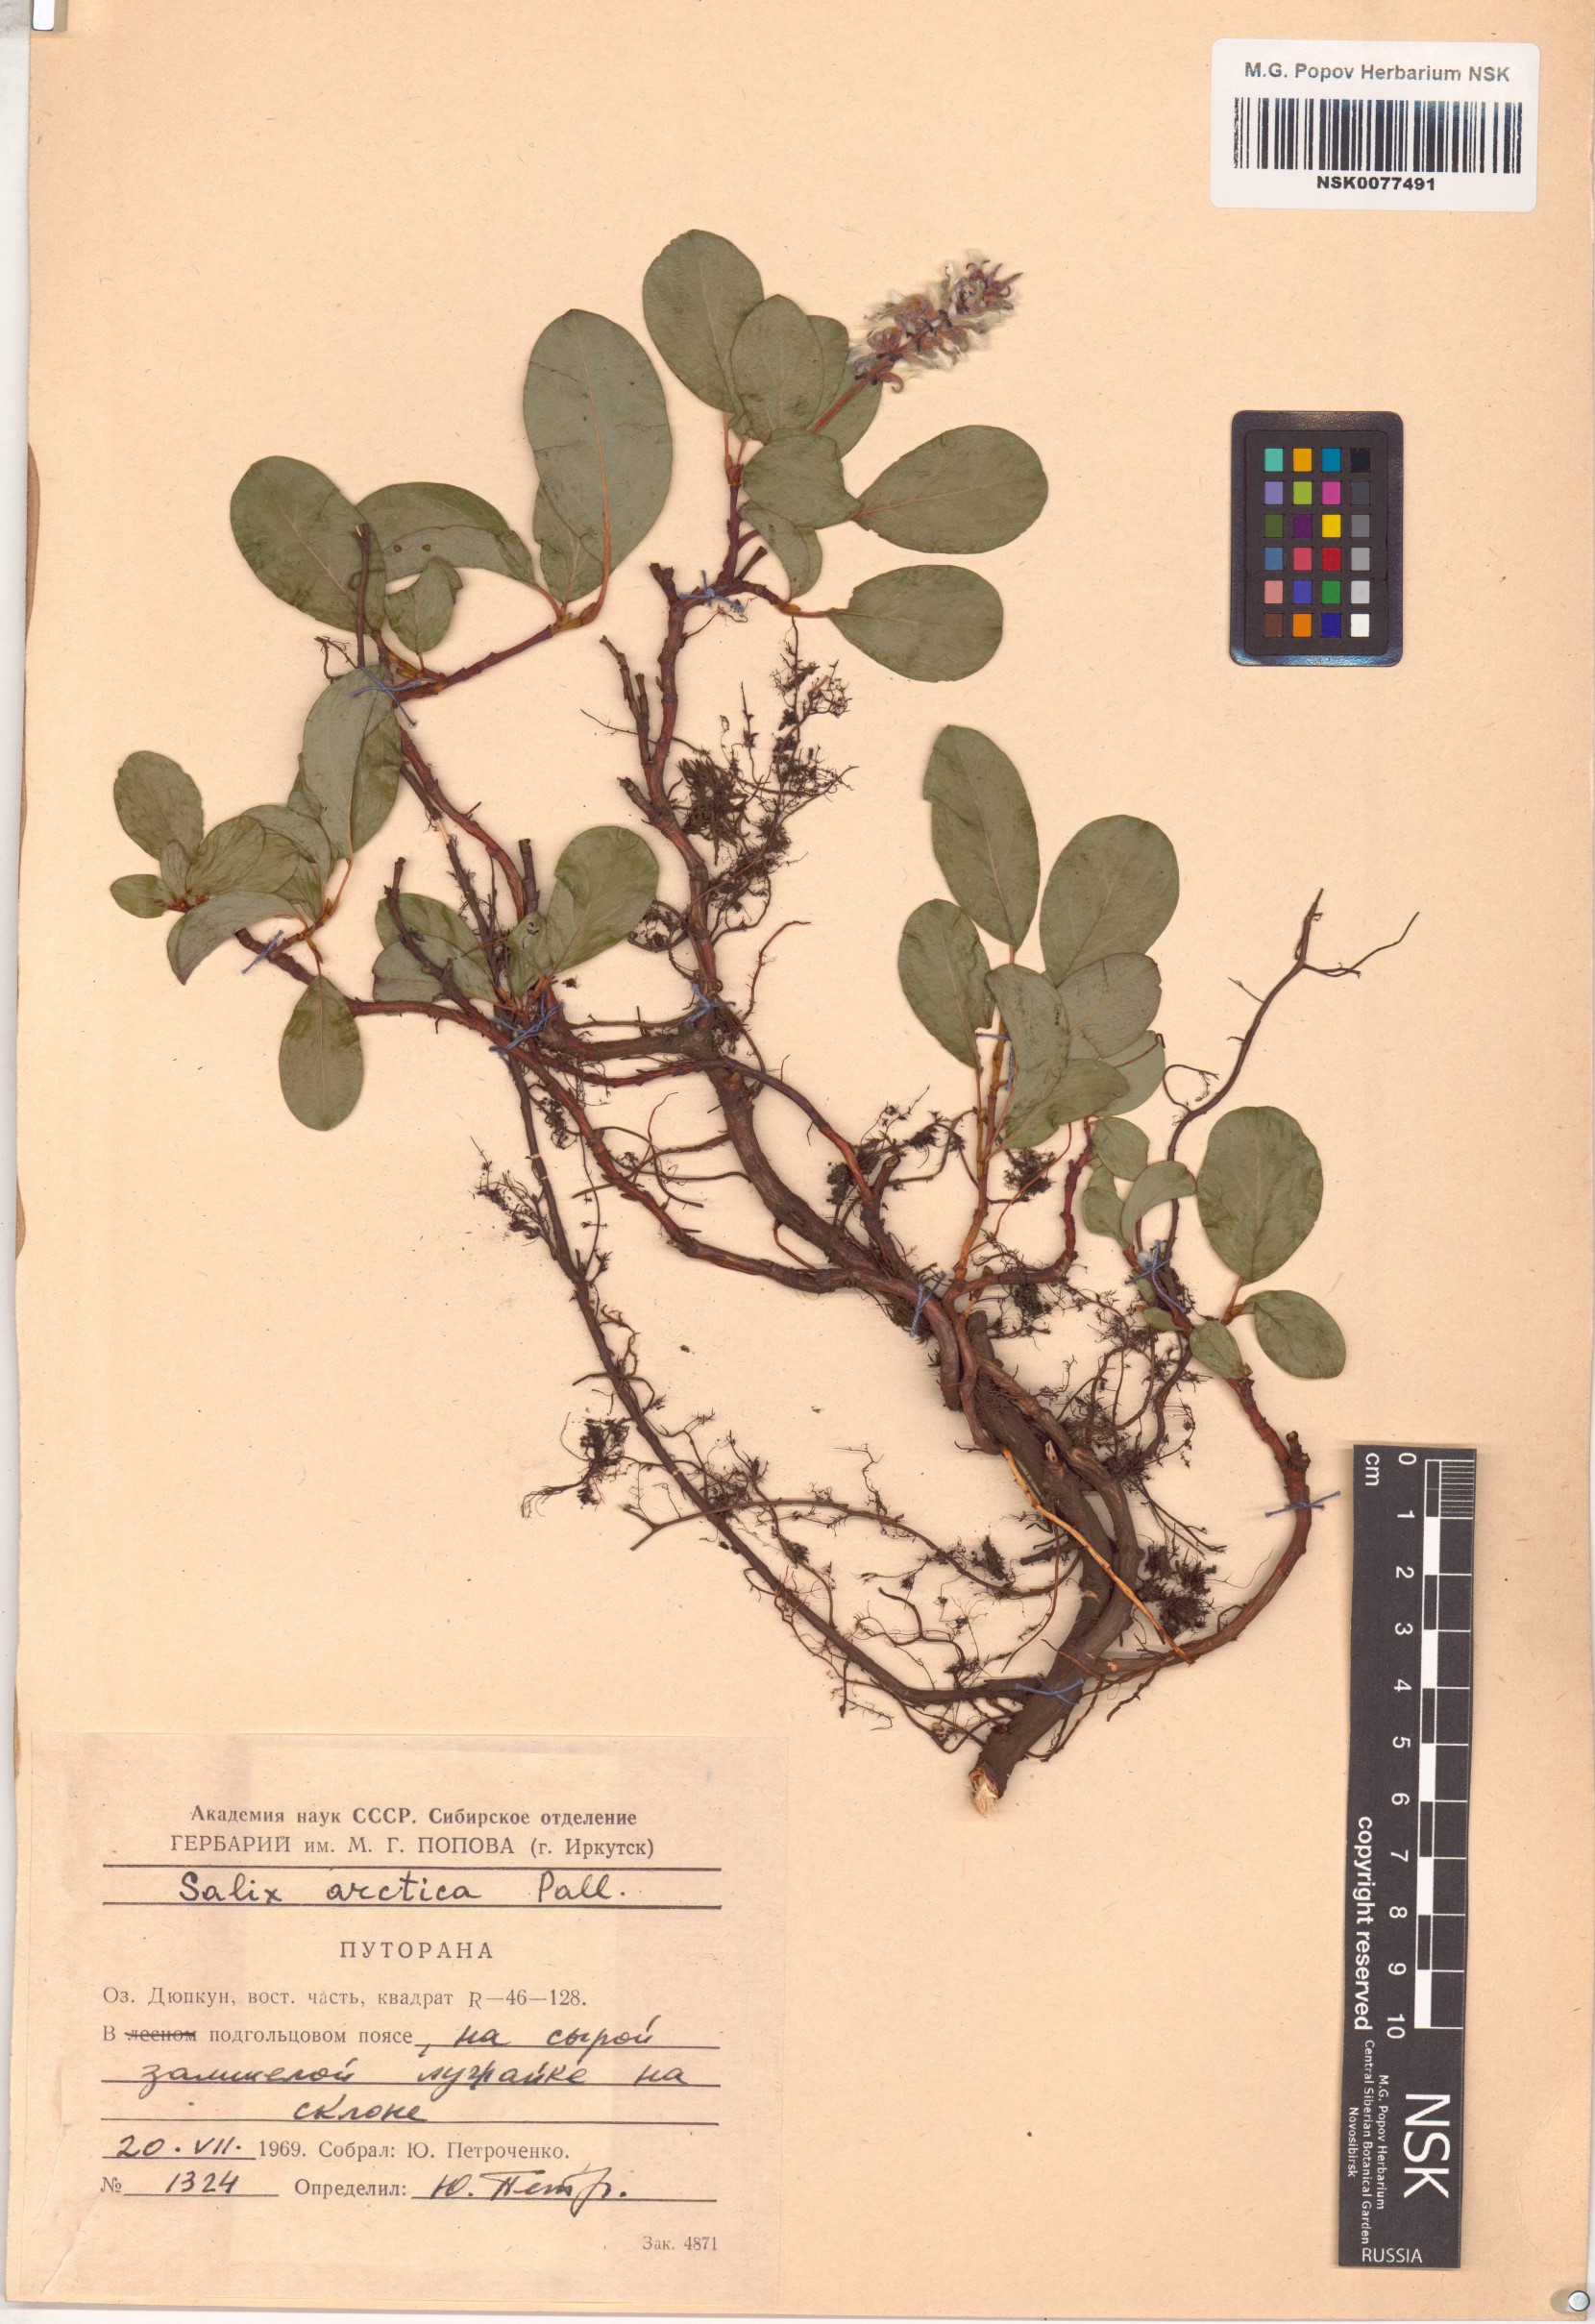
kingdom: Plantae
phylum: Tracheophyta
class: Magnoliopsida
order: Malpighiales
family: Salicaceae
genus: Salix
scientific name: Salix arctica
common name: Arctic willow
